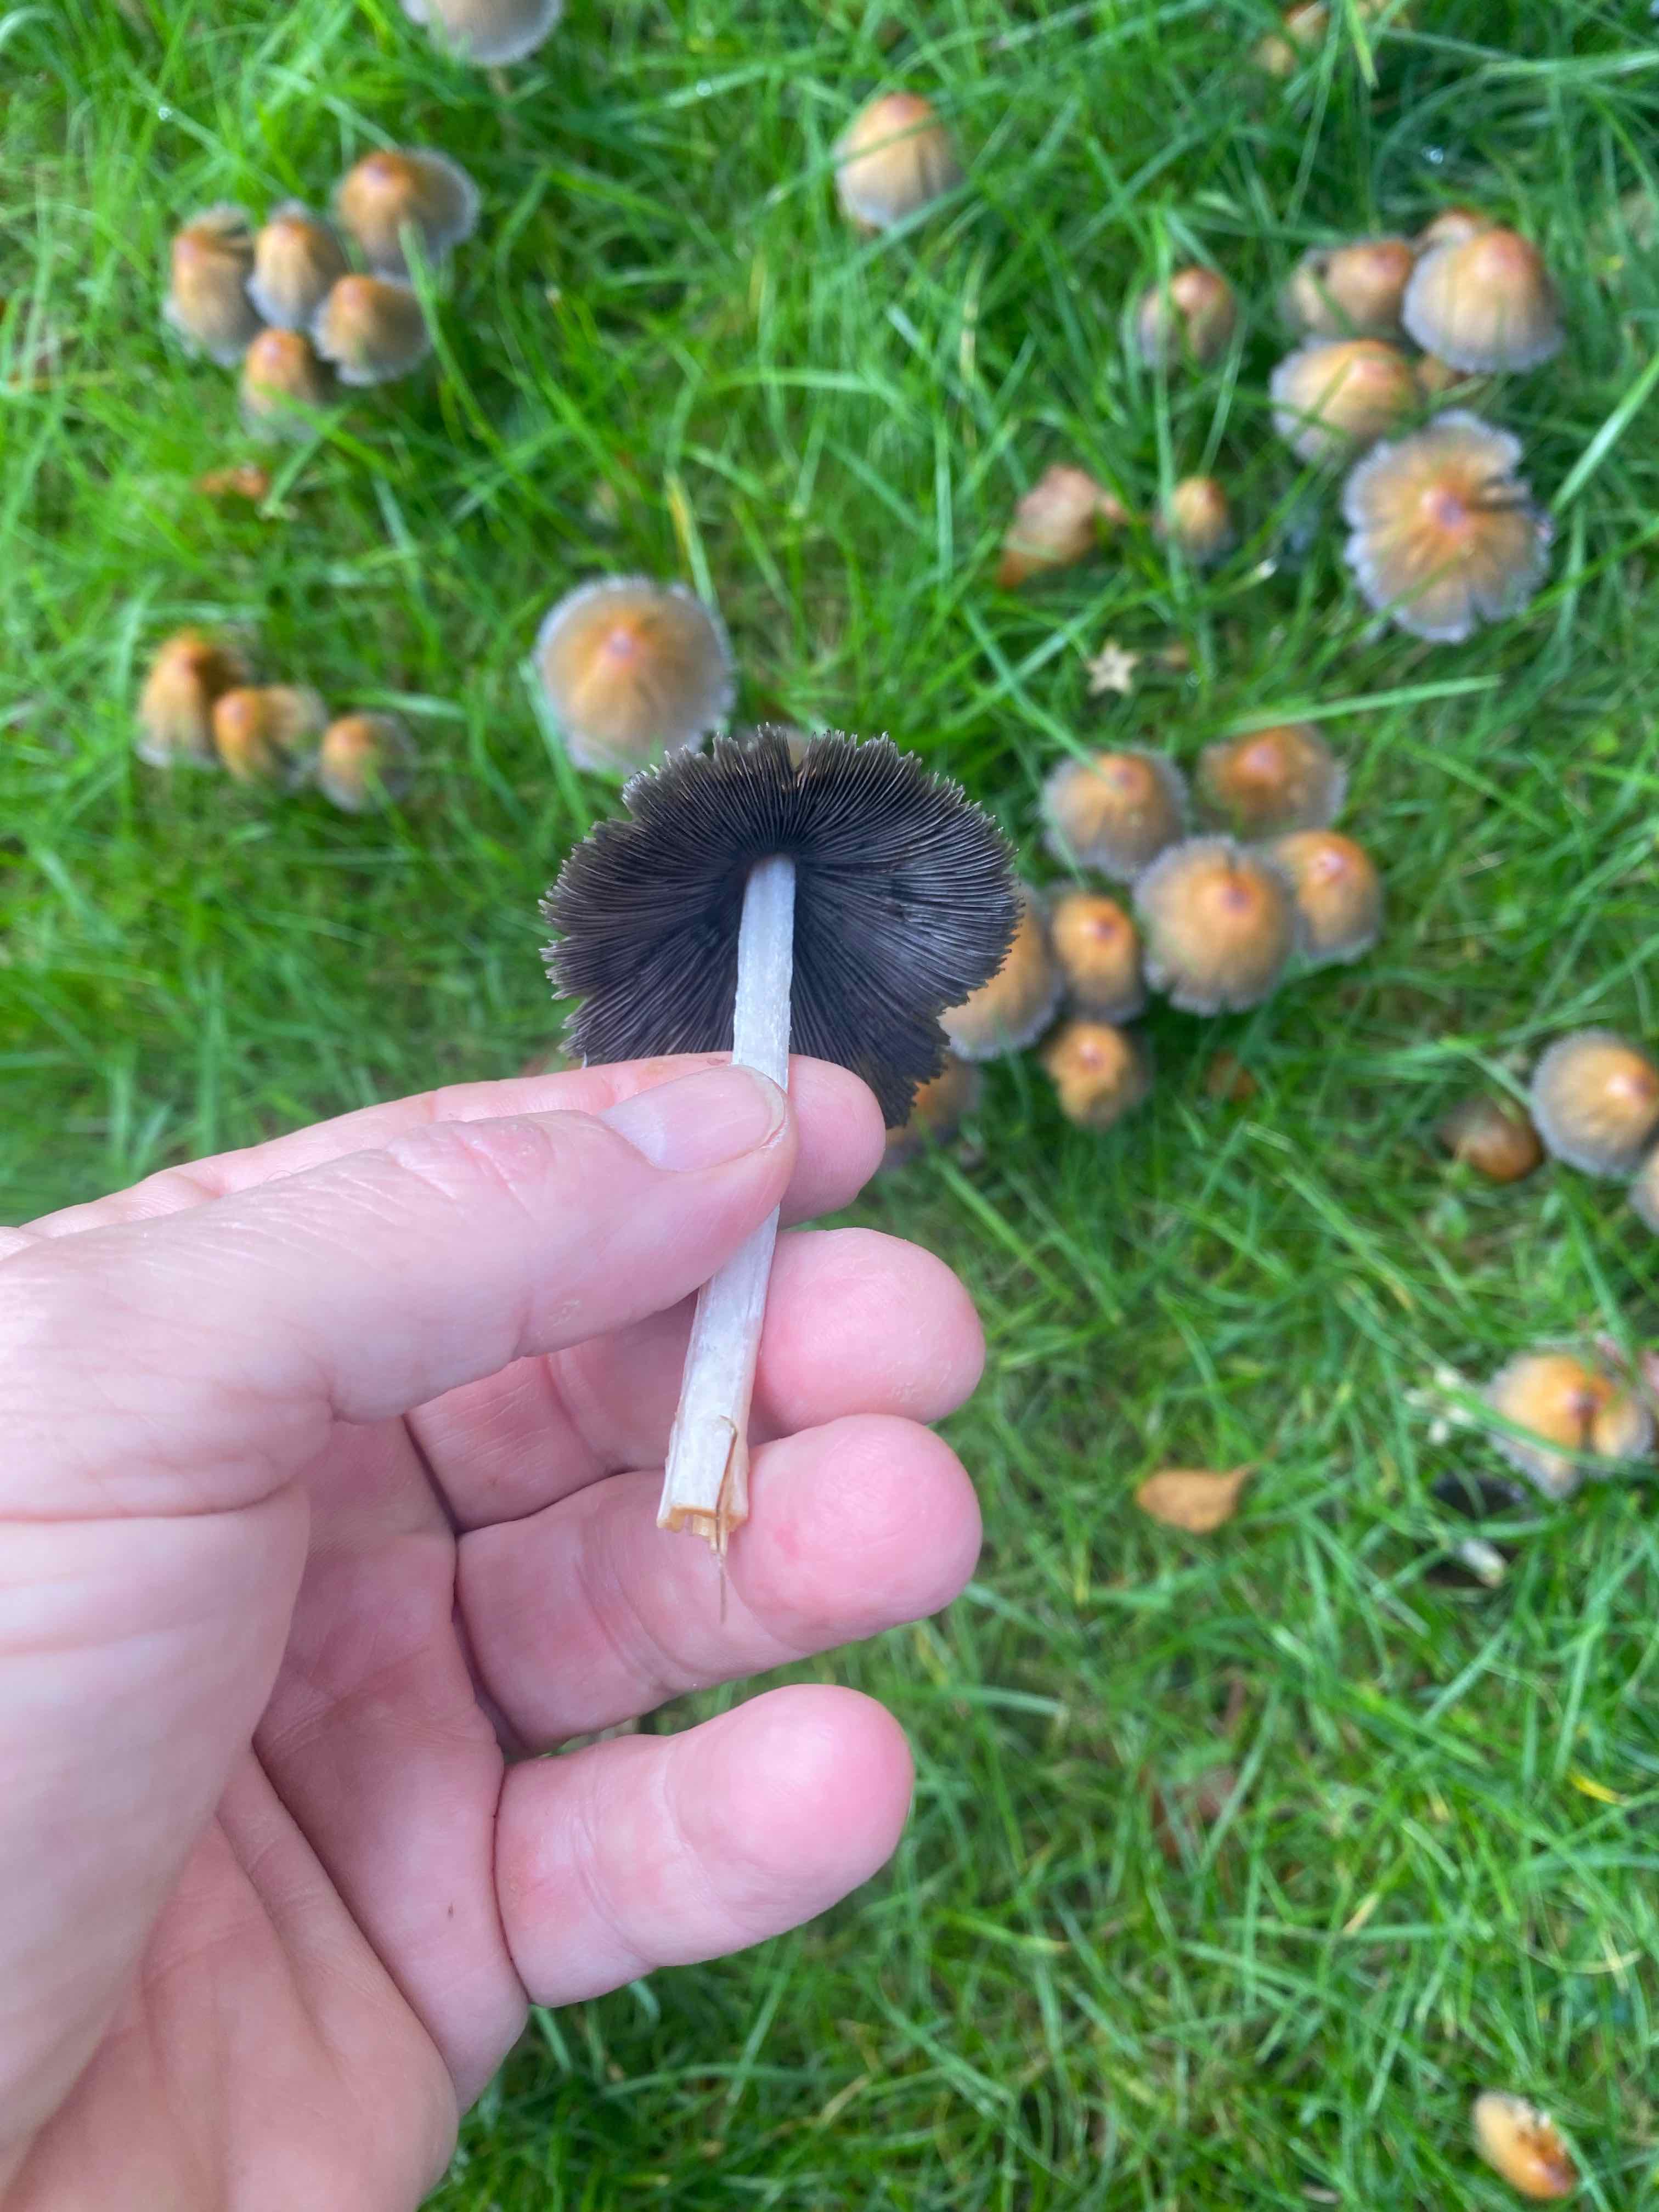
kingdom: Fungi
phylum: Basidiomycota
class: Agaricomycetes
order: Agaricales
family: Psathyrellaceae
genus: Coprinellus
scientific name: Coprinellus
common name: blækhat
